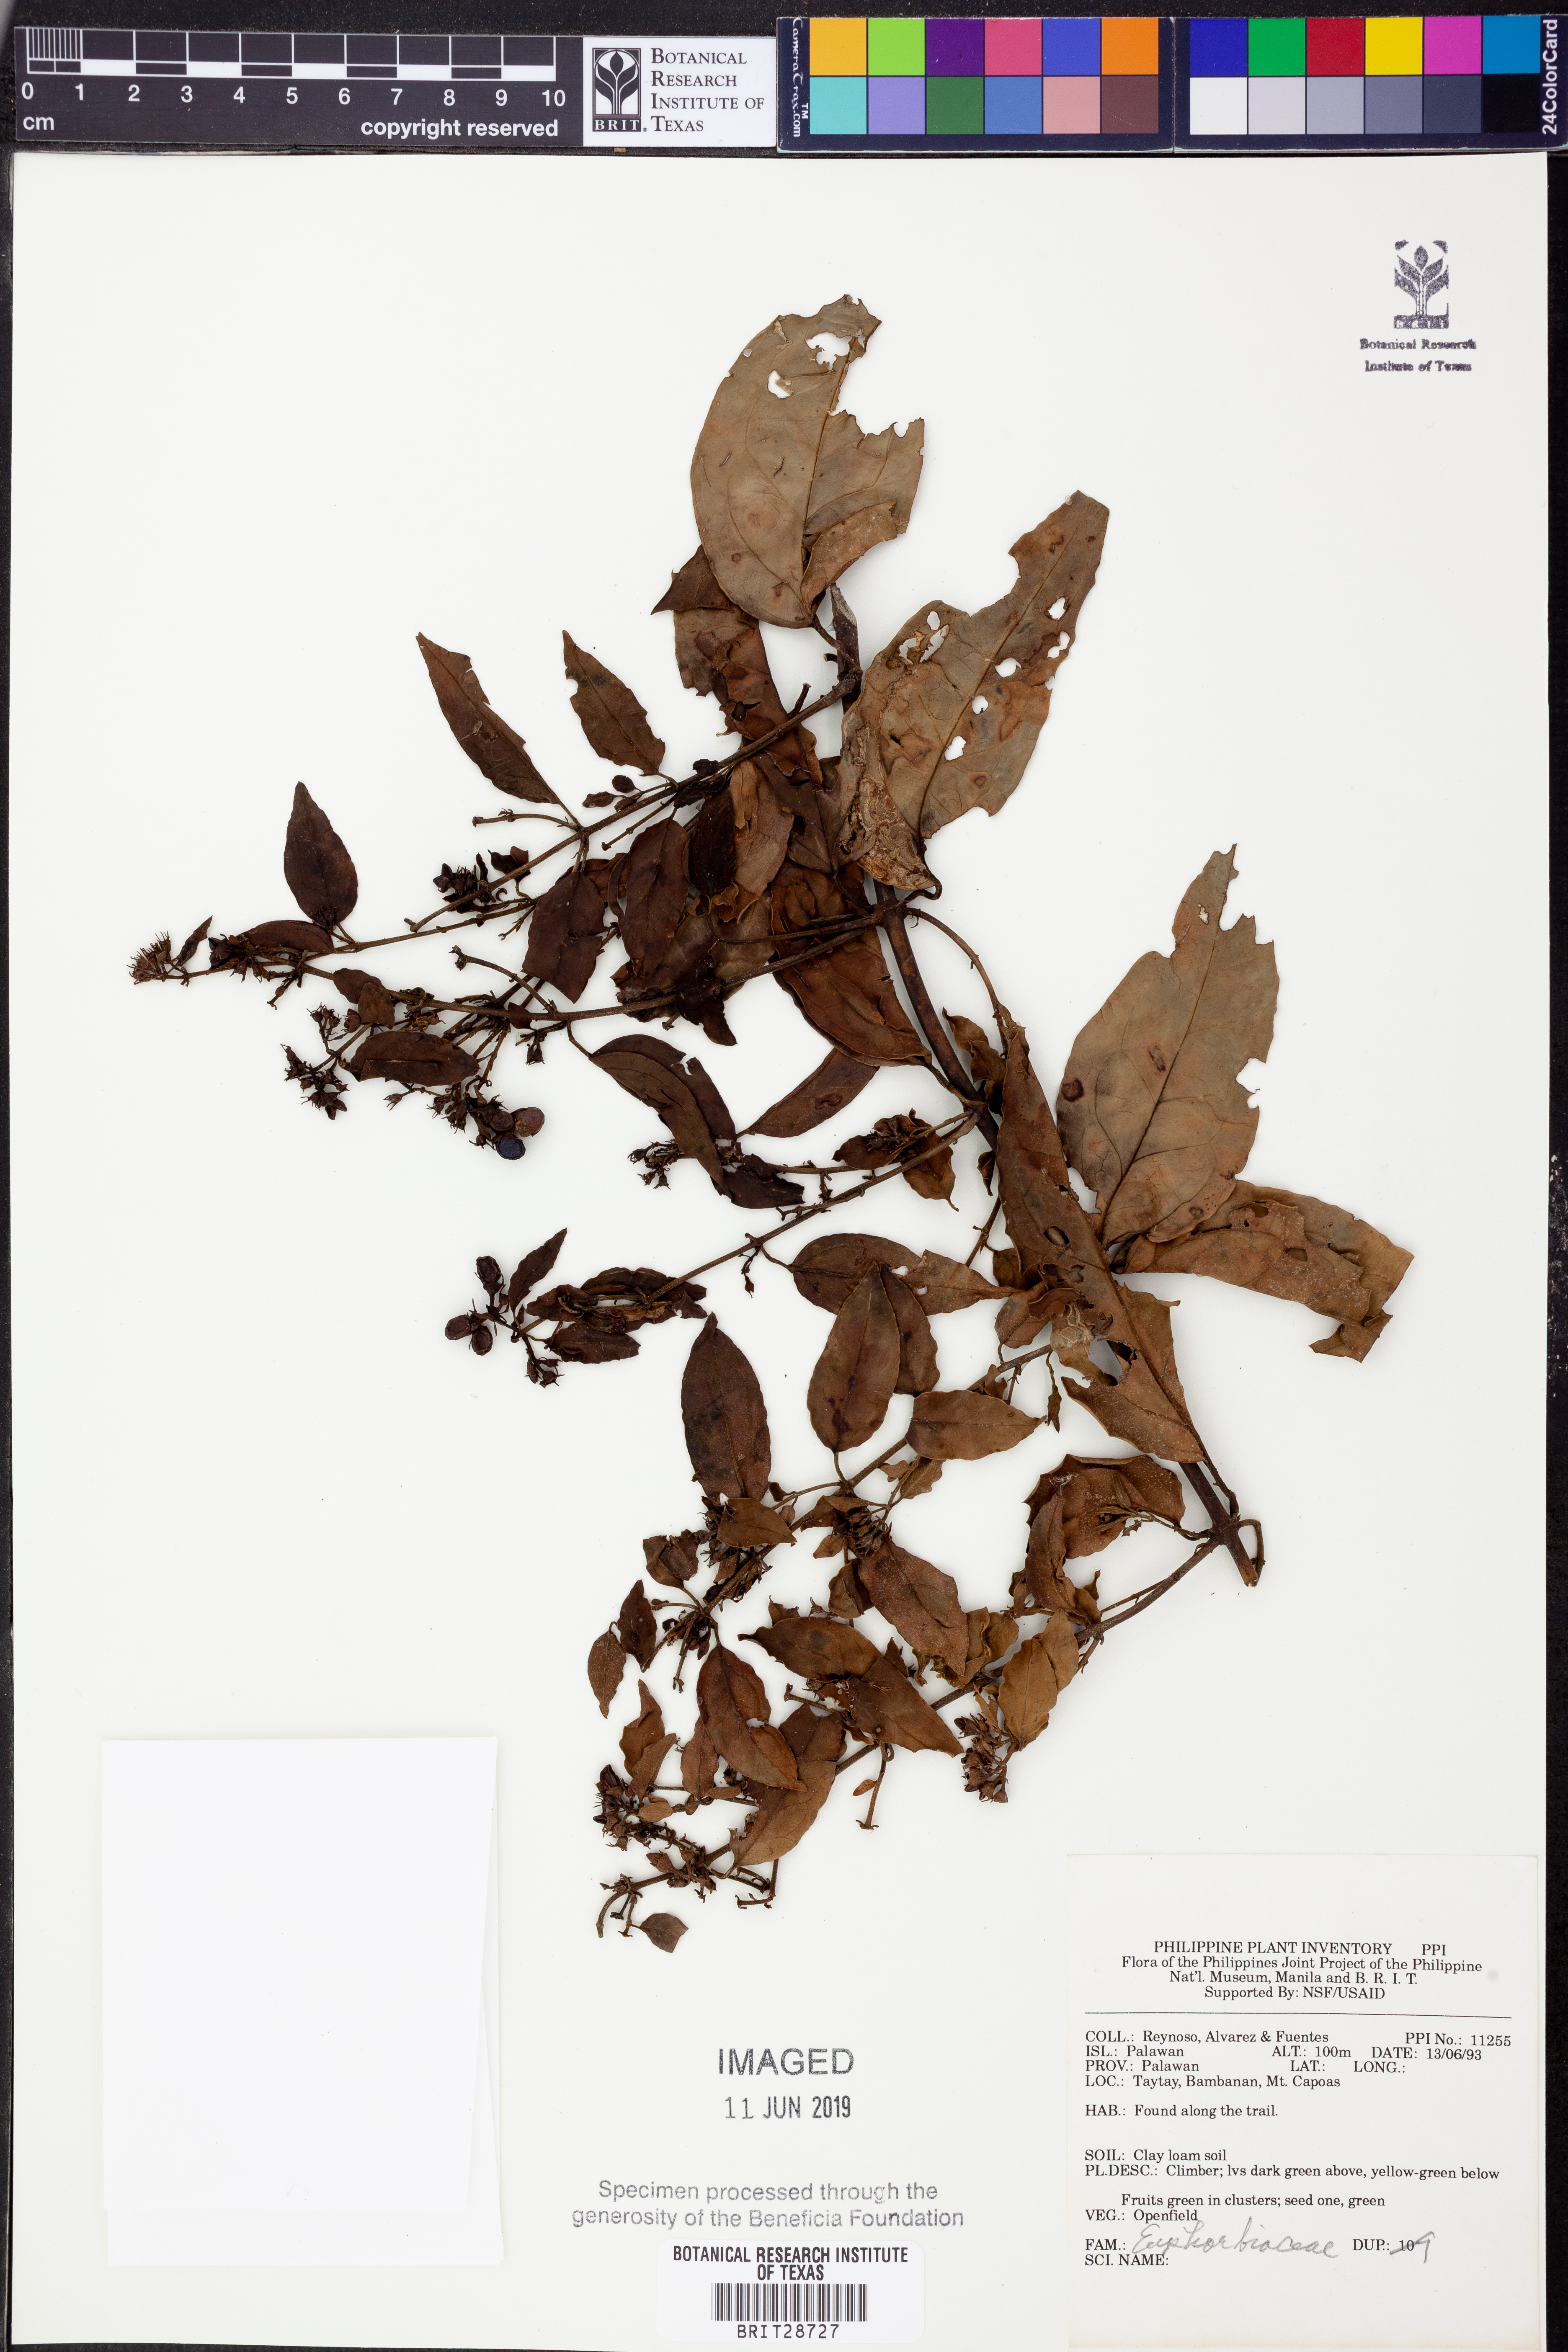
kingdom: Plantae
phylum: Tracheophyta
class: Magnoliopsida
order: Malpighiales
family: Euphorbiaceae
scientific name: Euphorbiaceae
